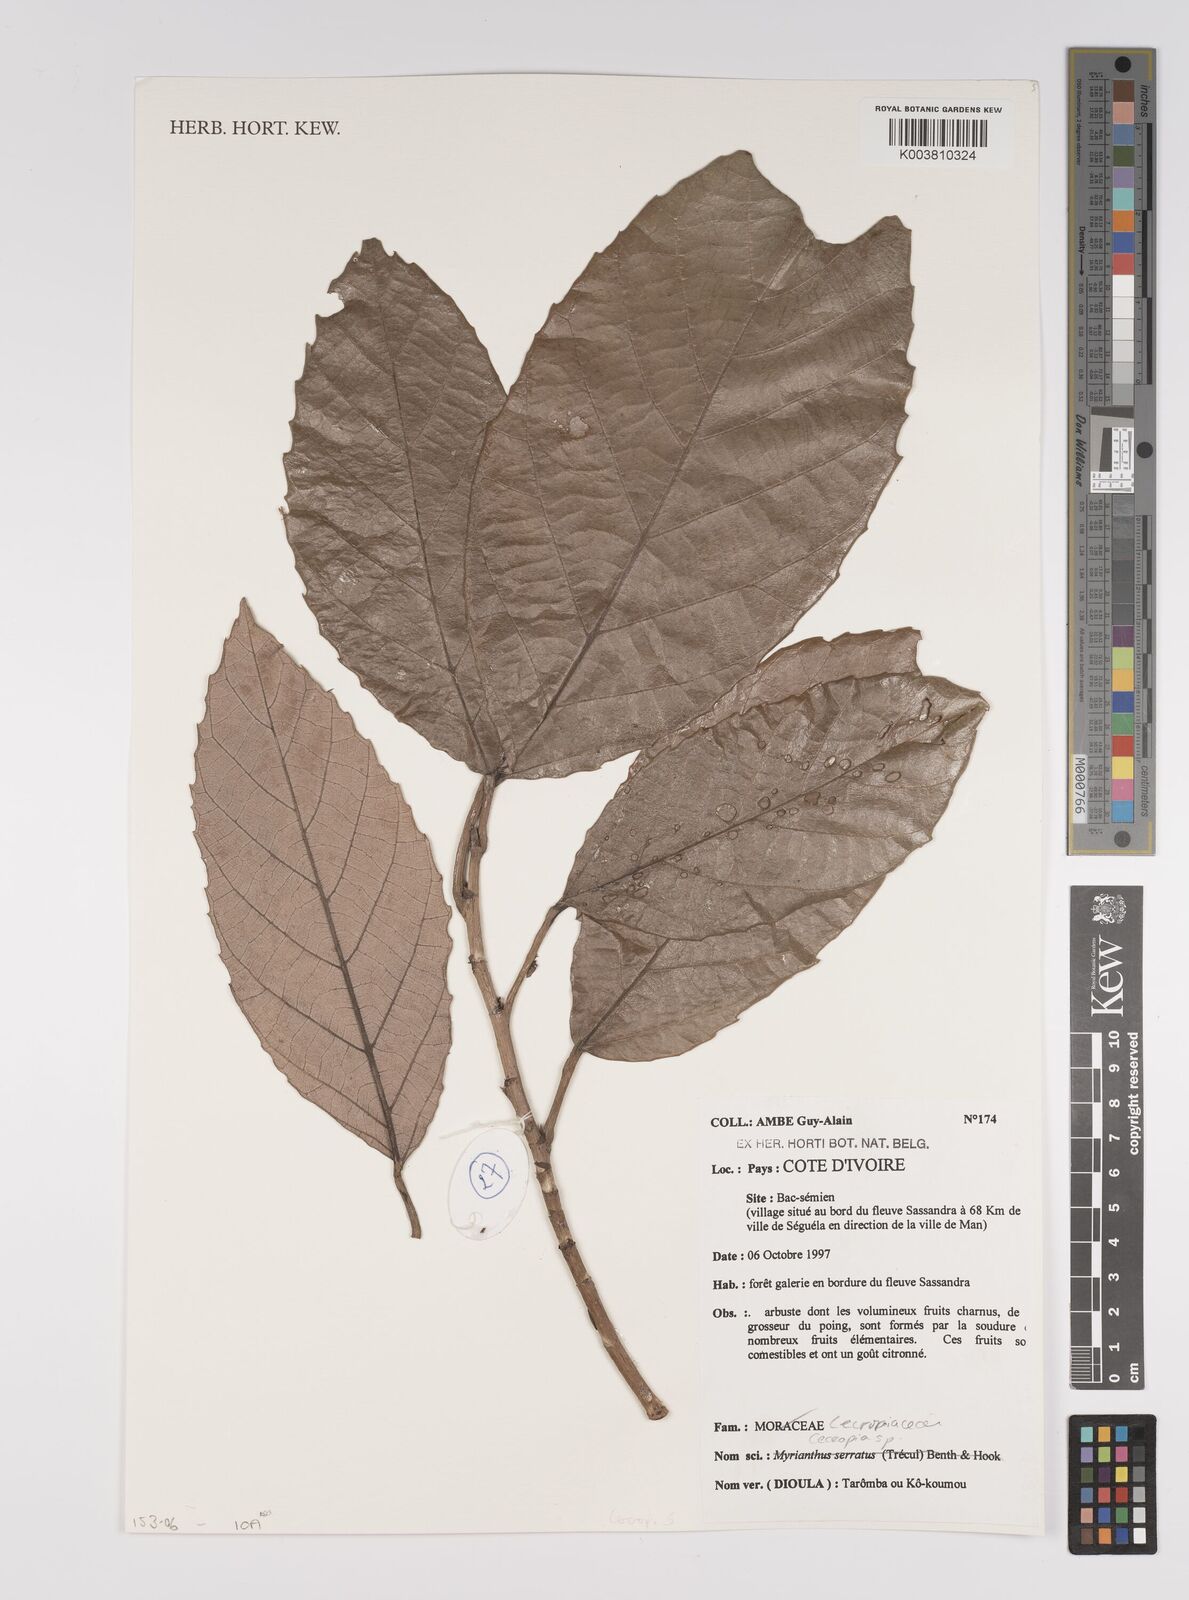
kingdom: Plantae
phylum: Tracheophyta
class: Magnoliopsida
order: Rosales
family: Urticaceae
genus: Cecropia
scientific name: Cecropia
